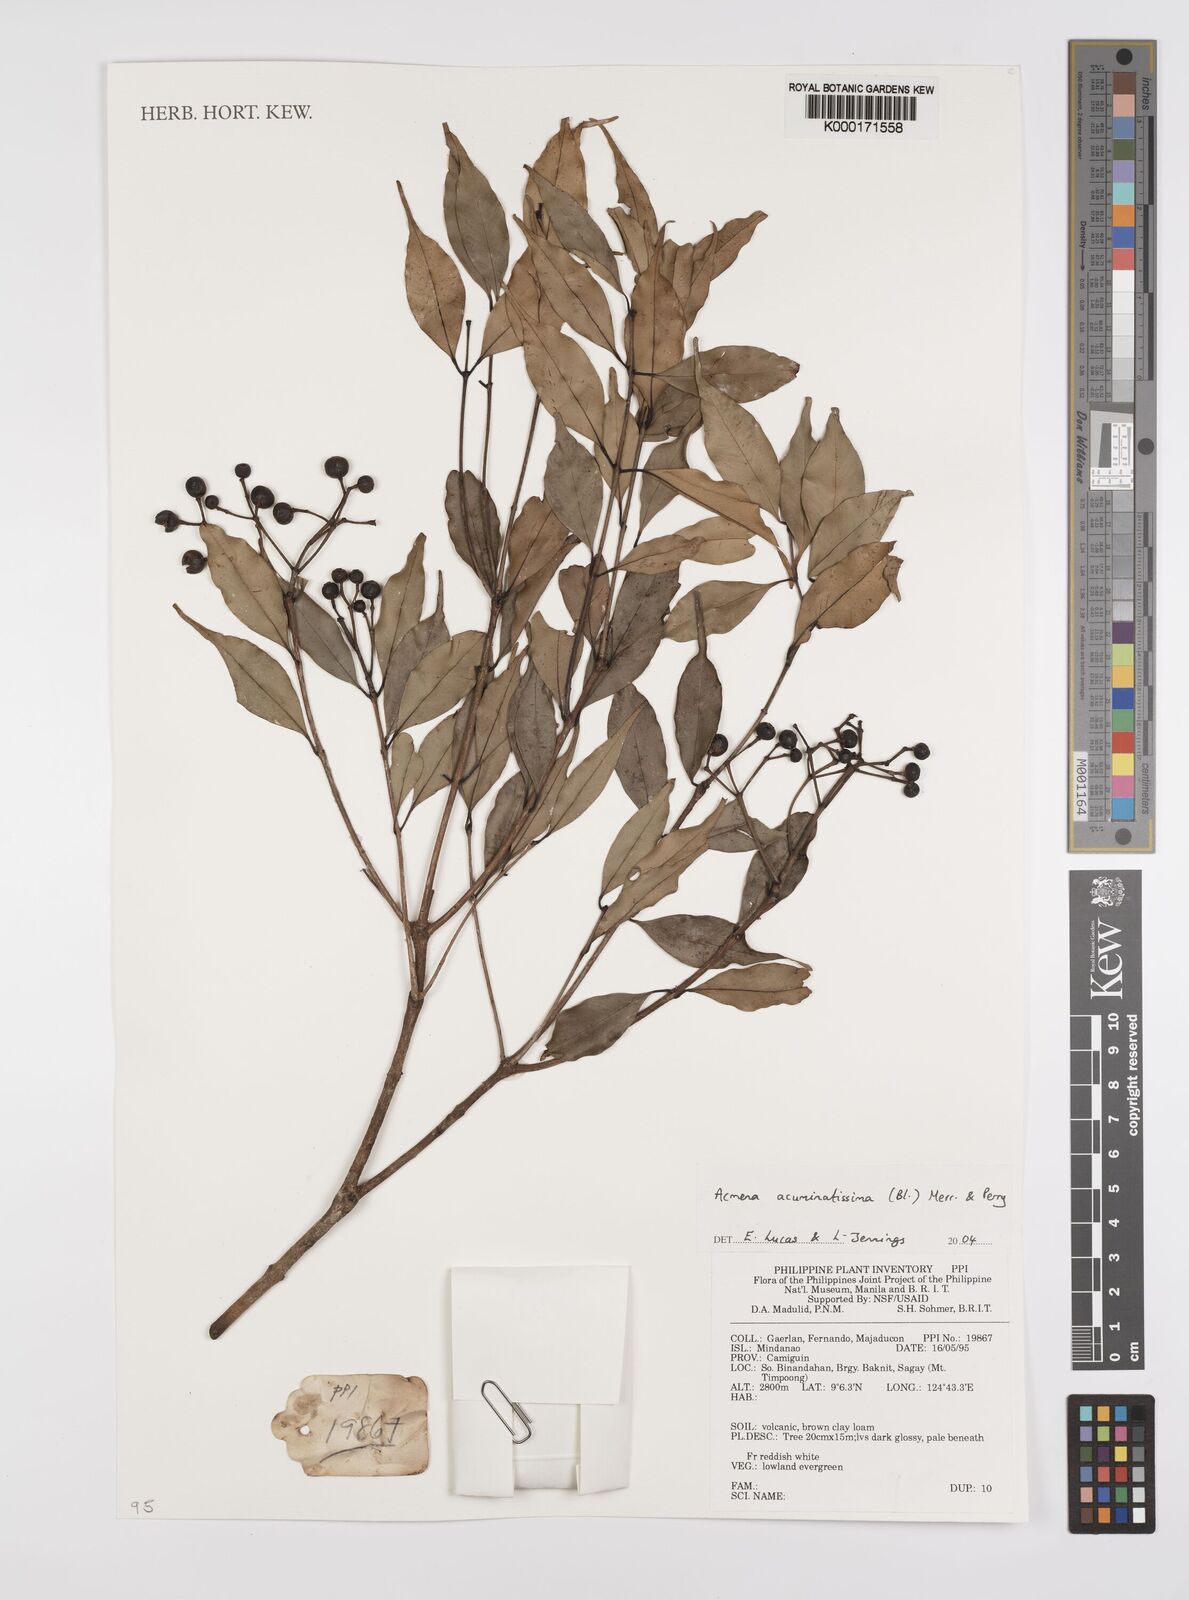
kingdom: Plantae
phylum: Tracheophyta
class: Magnoliopsida
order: Myrtales
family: Myrtaceae
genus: Syzygium
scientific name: Syzygium acuminatissimum
